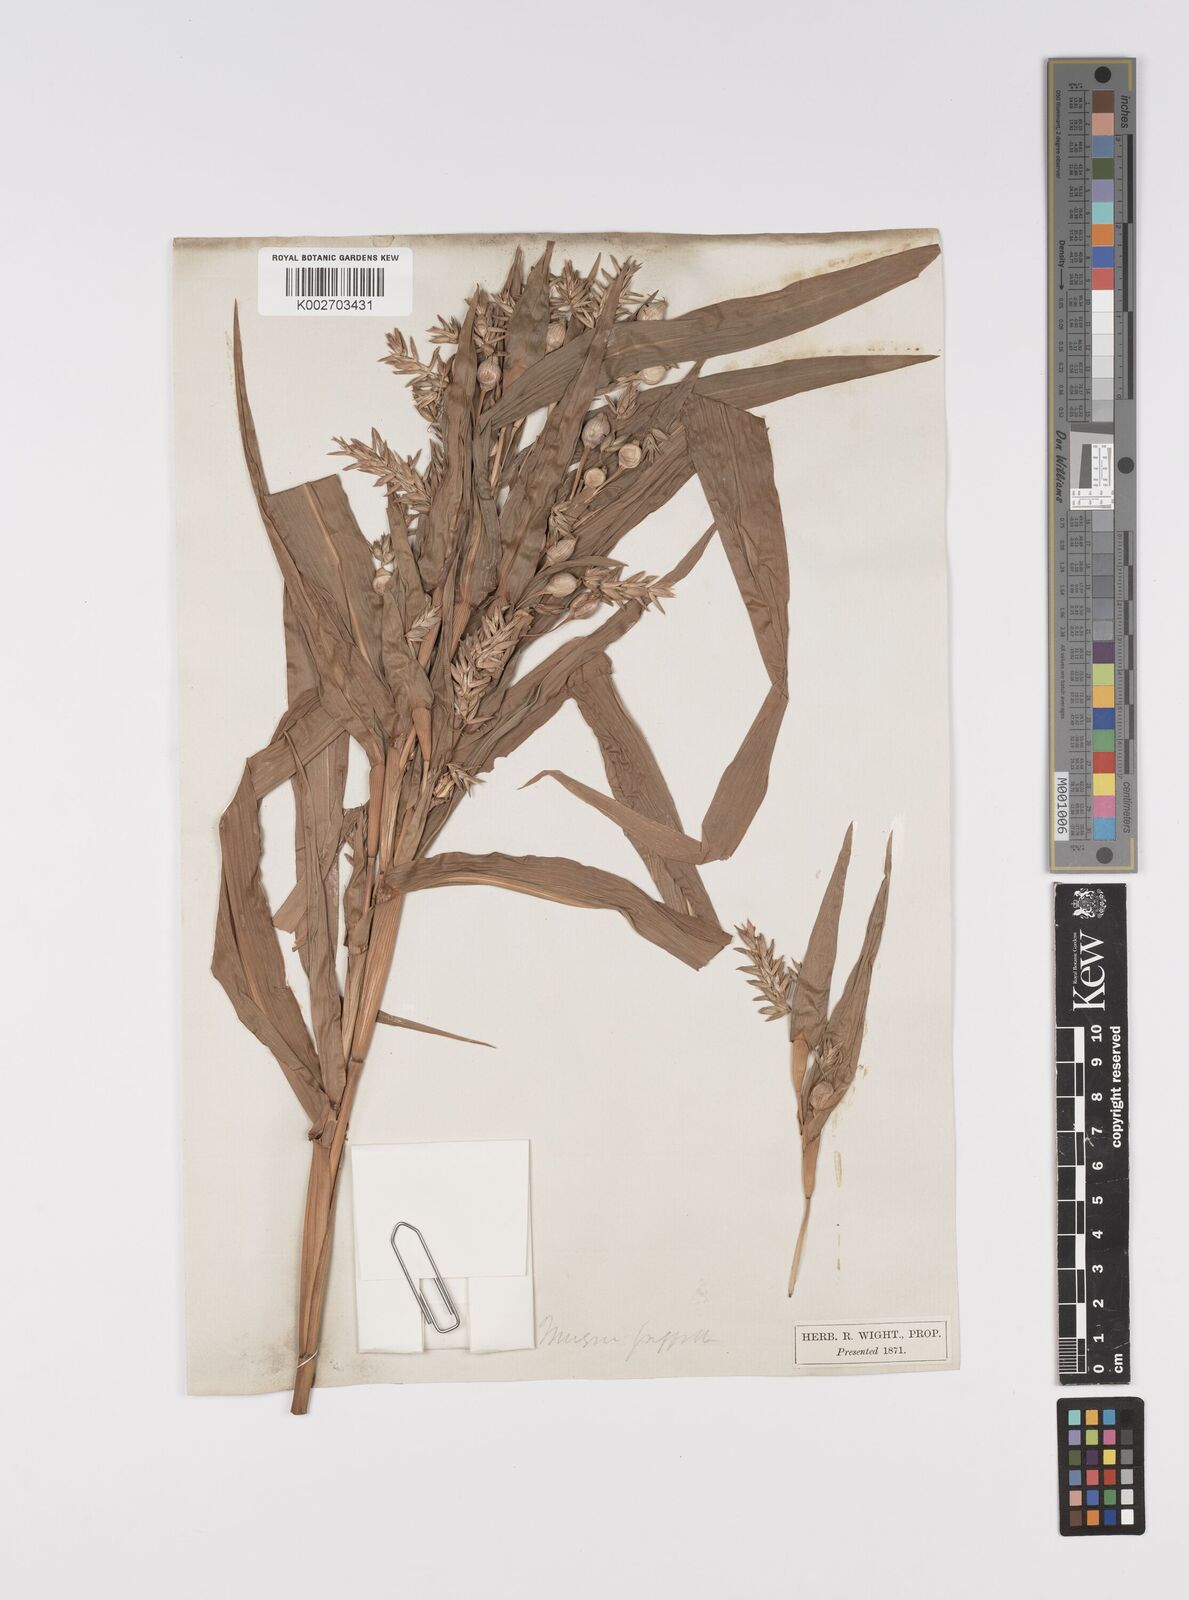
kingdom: Plantae
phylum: Tracheophyta
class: Liliopsida
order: Poales
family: Poaceae
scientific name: Poaceae
